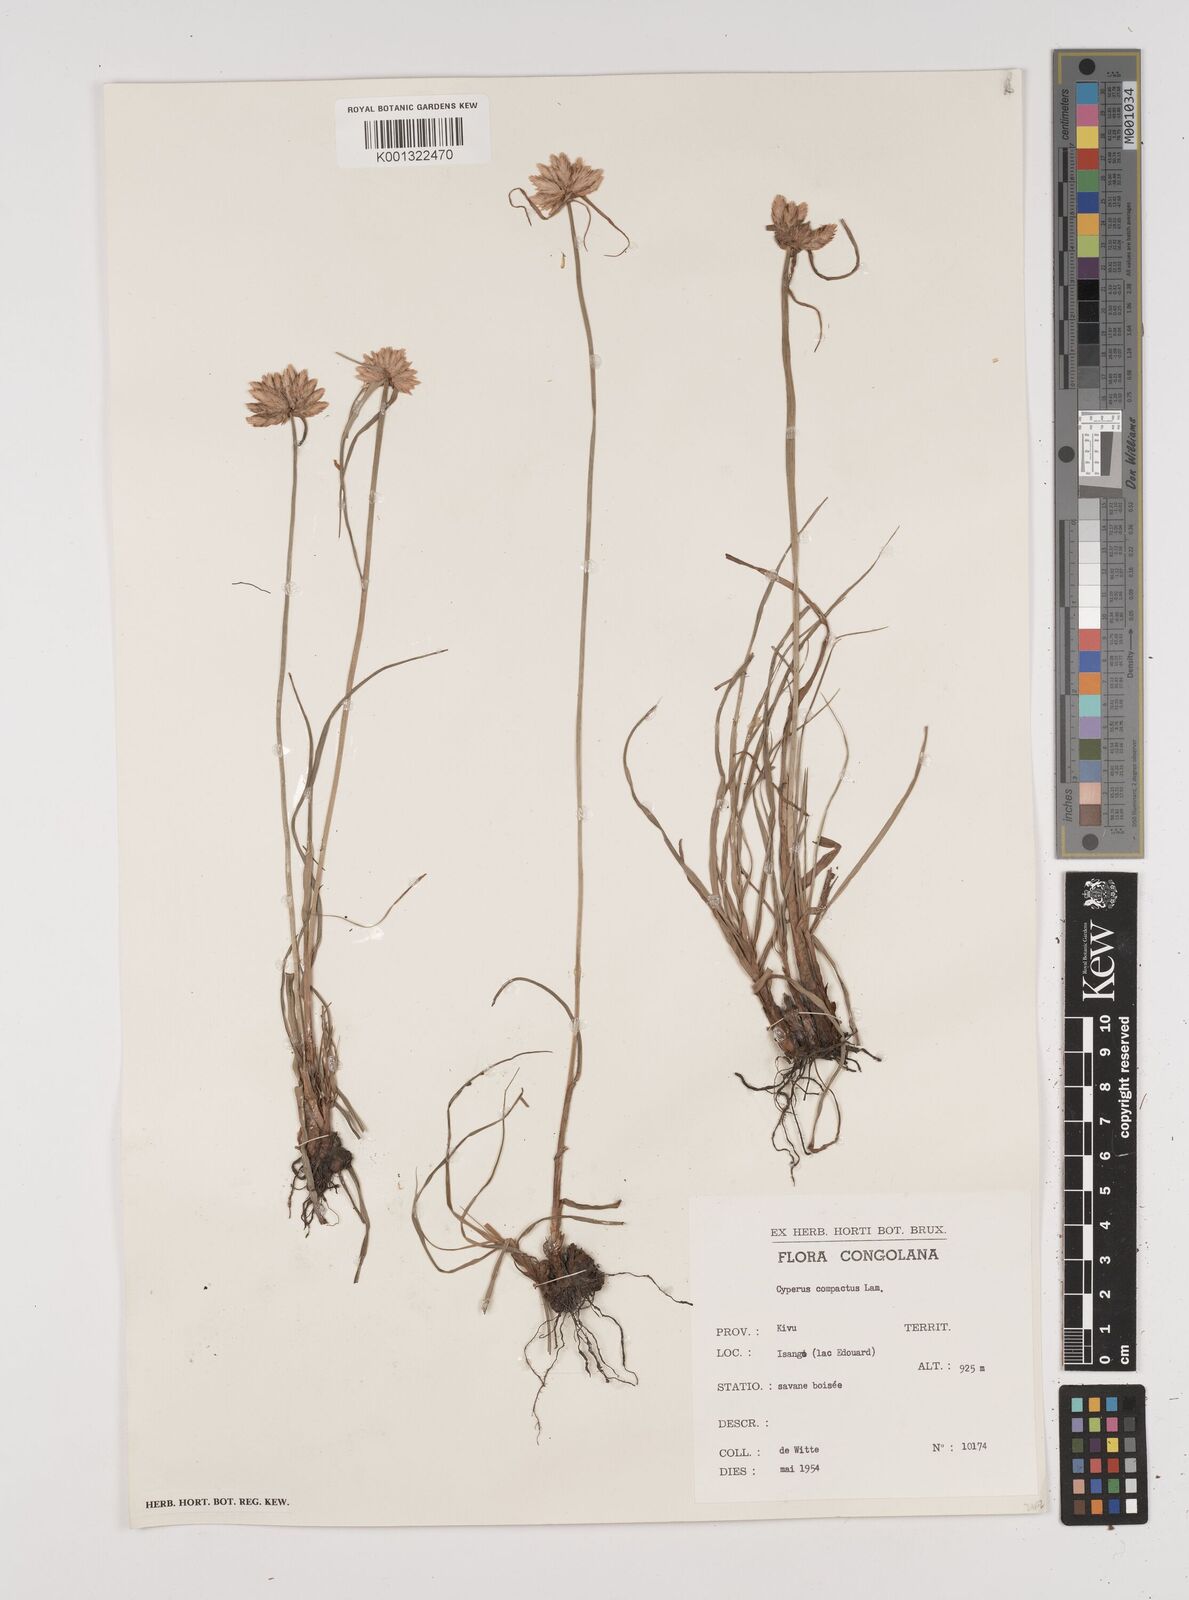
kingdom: Plantae
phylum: Tracheophyta
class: Liliopsida
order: Poales
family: Cyperaceae
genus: Cyperus
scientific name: Cyperus niveus
